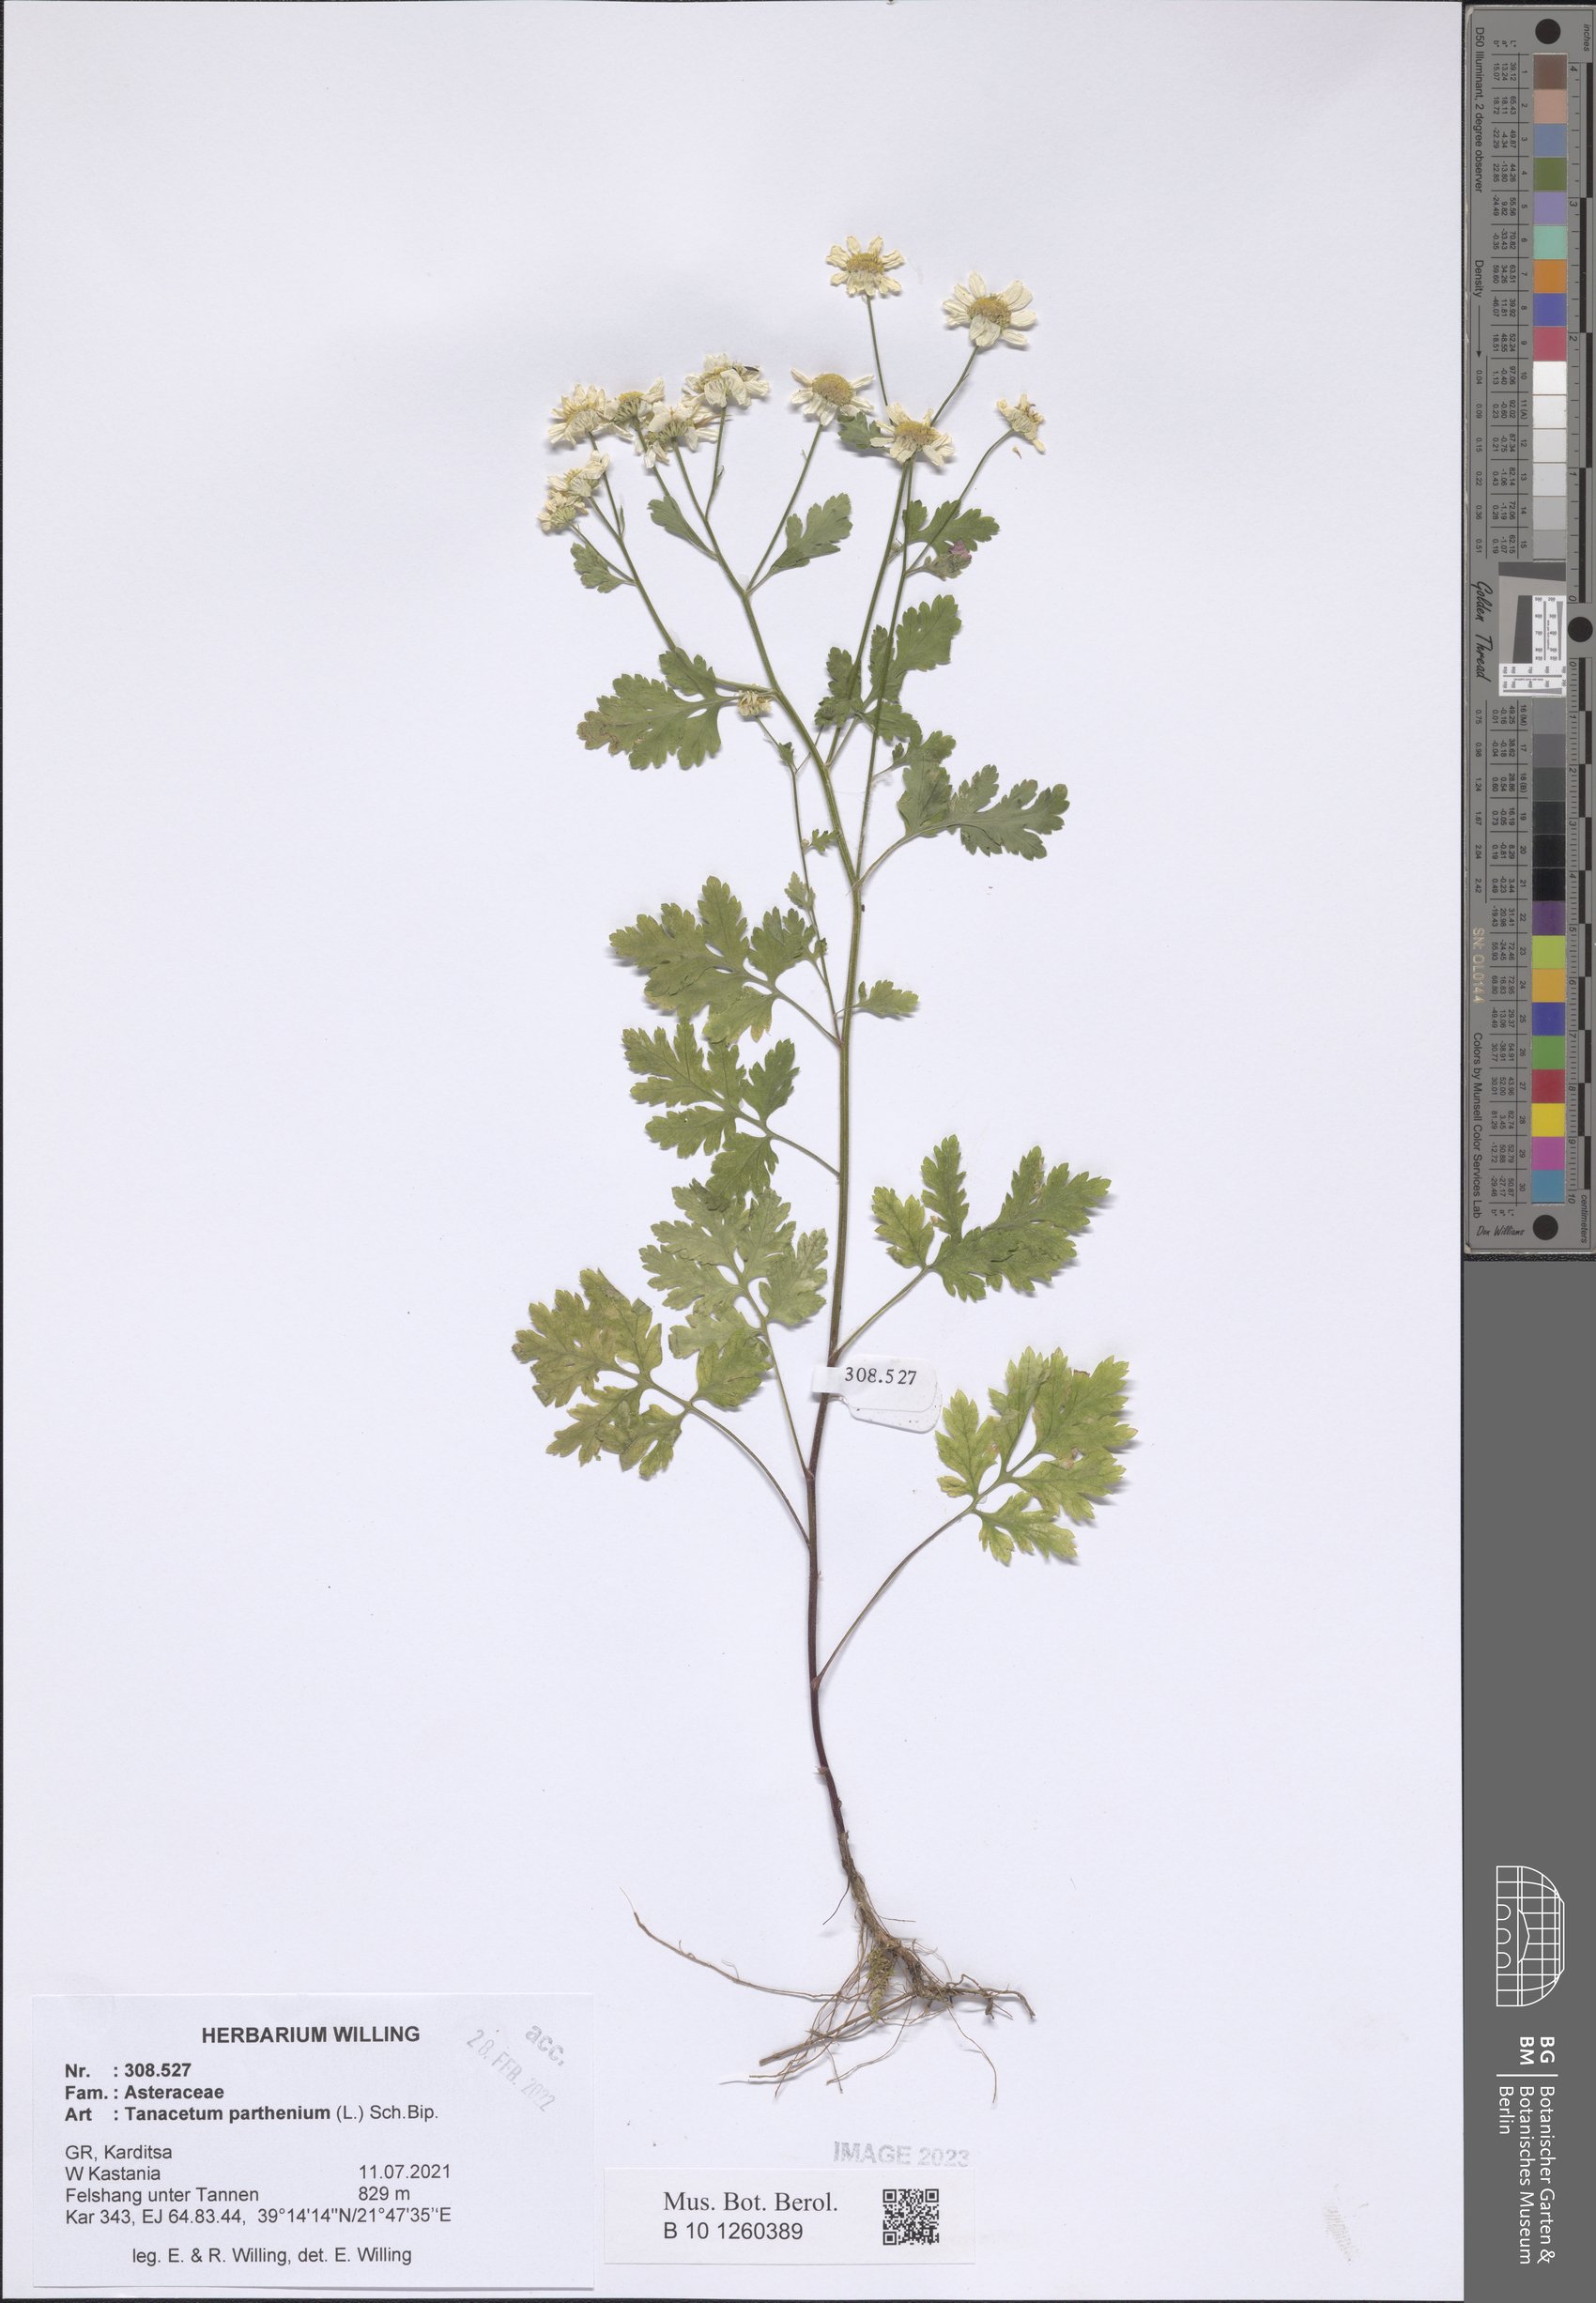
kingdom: Plantae
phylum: Tracheophyta
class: Magnoliopsida
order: Asterales
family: Asteraceae
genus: Tanacetum
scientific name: Tanacetum parthenium
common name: Feverfew
